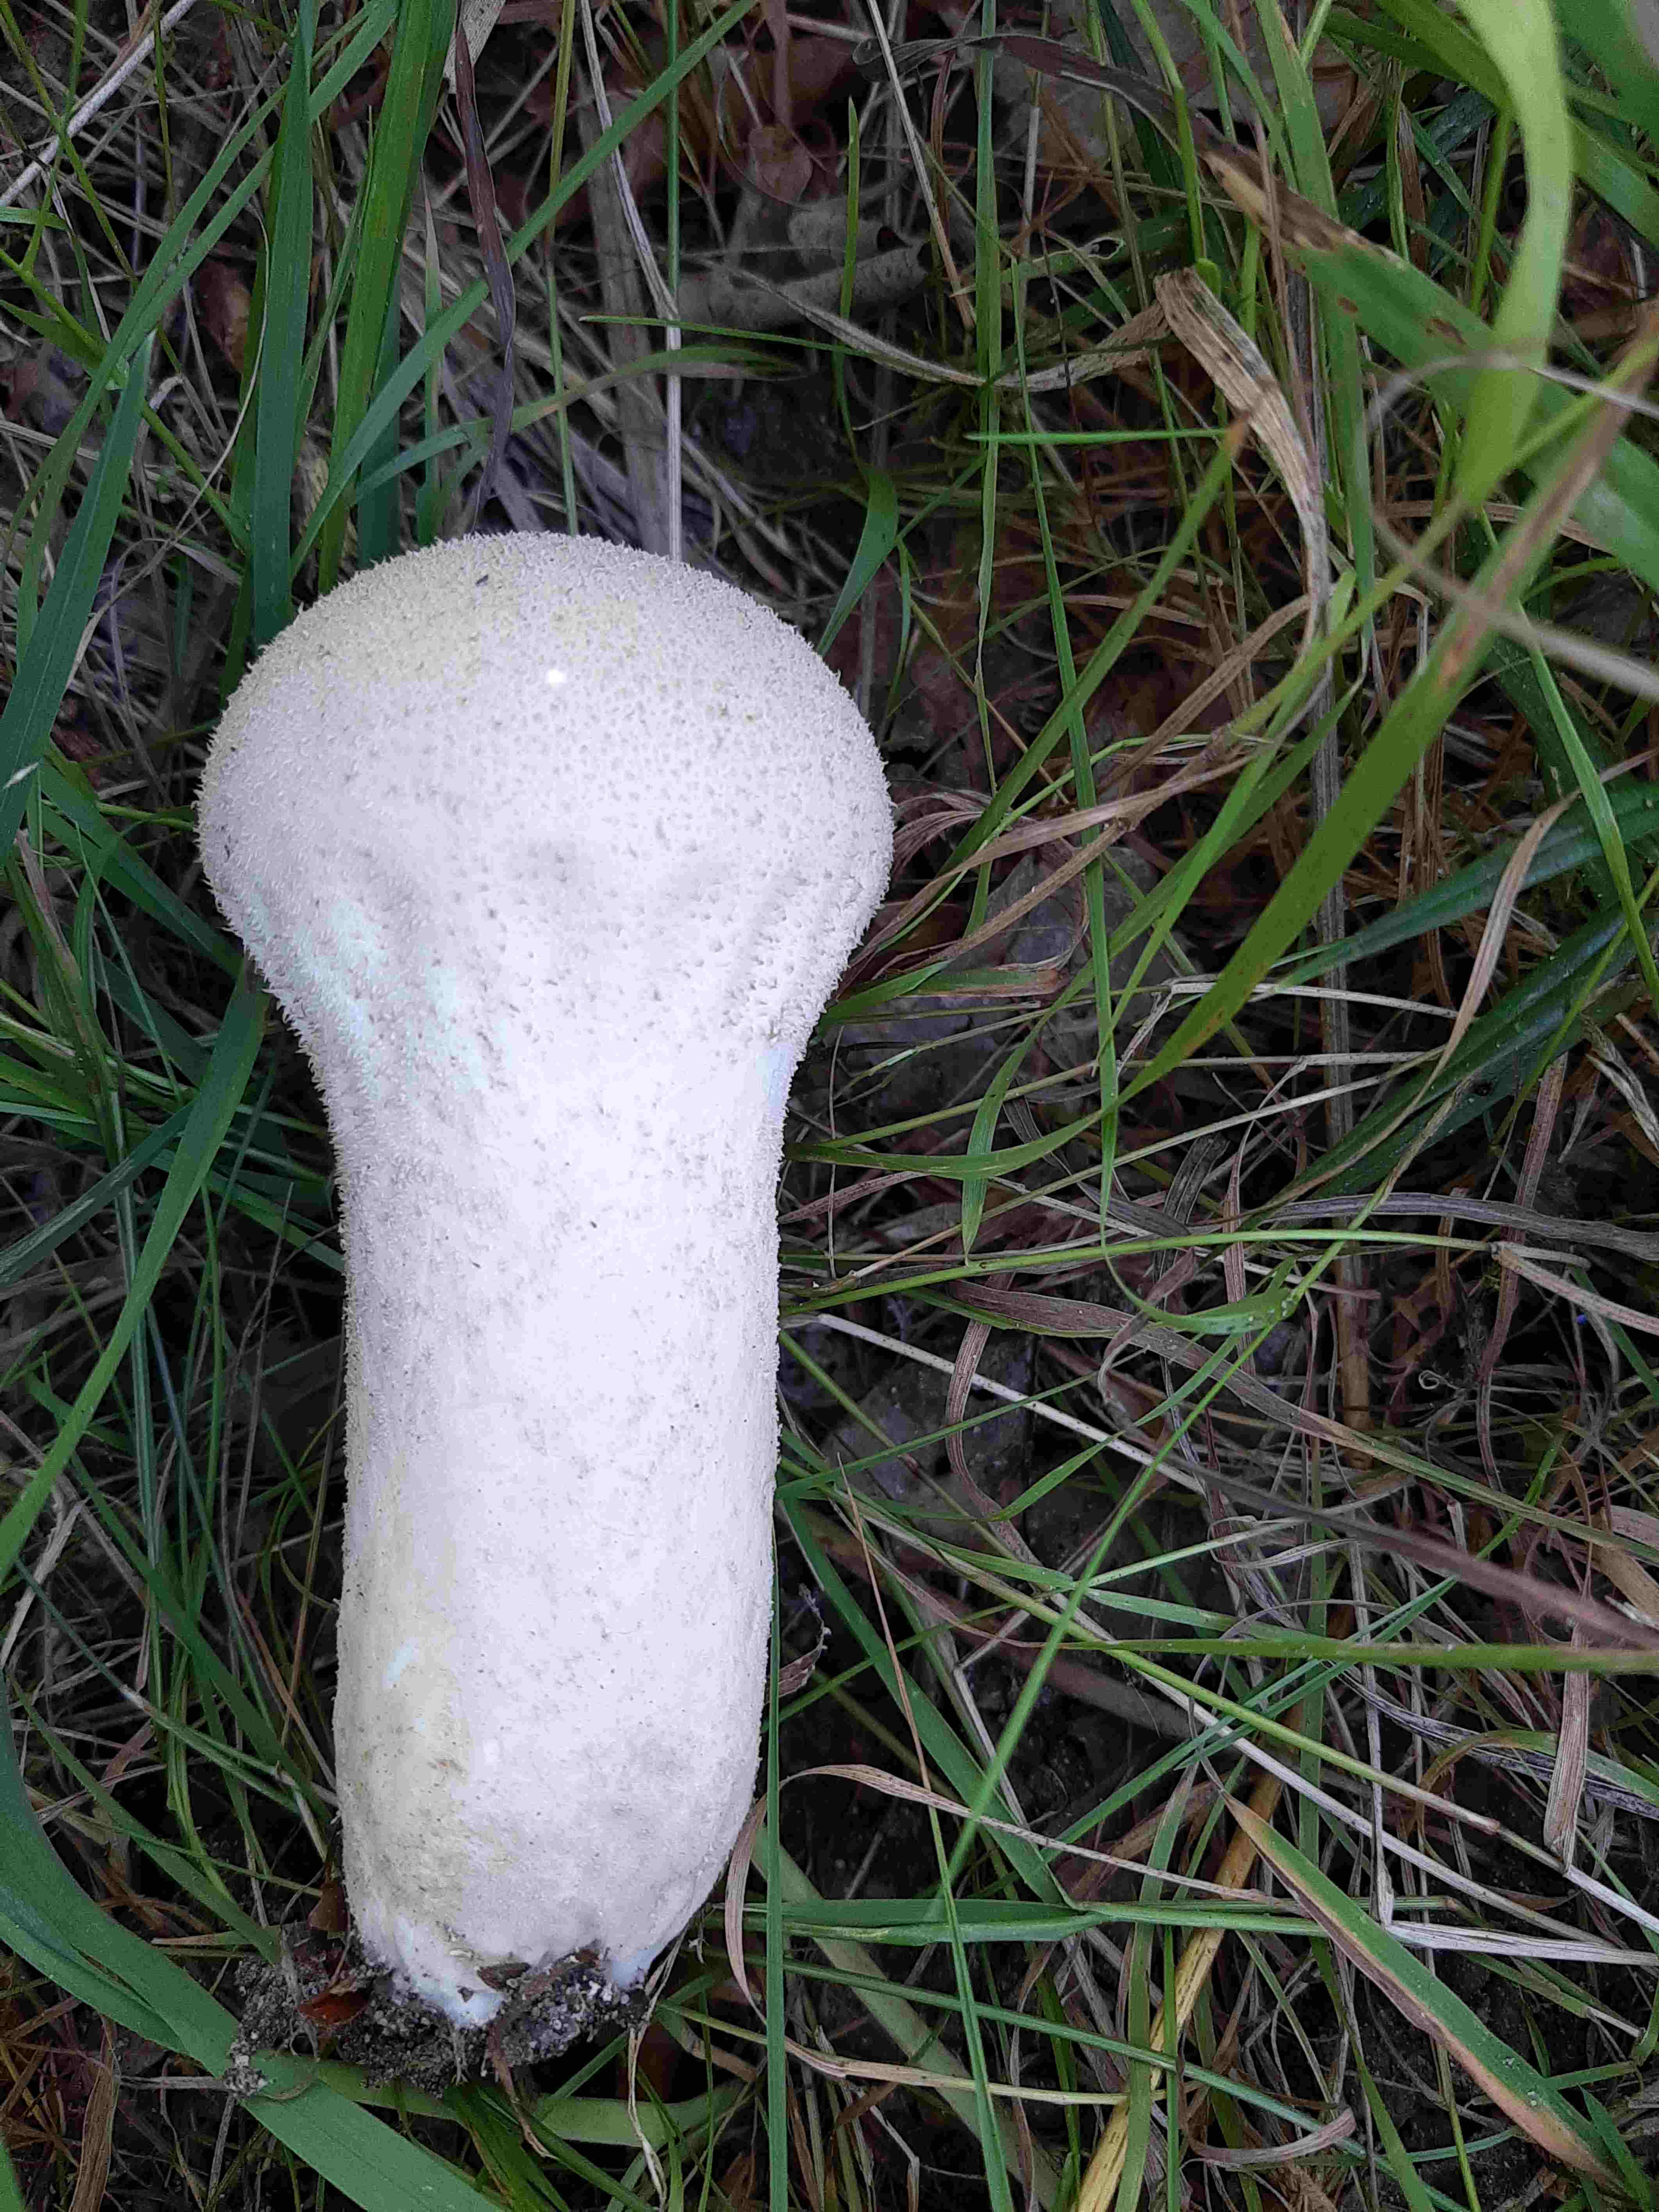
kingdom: Fungi
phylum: Basidiomycota
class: Agaricomycetes
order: Agaricales
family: Lycoperdaceae
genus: Lycoperdon
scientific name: Lycoperdon excipuliforme
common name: højstokket støvbold
